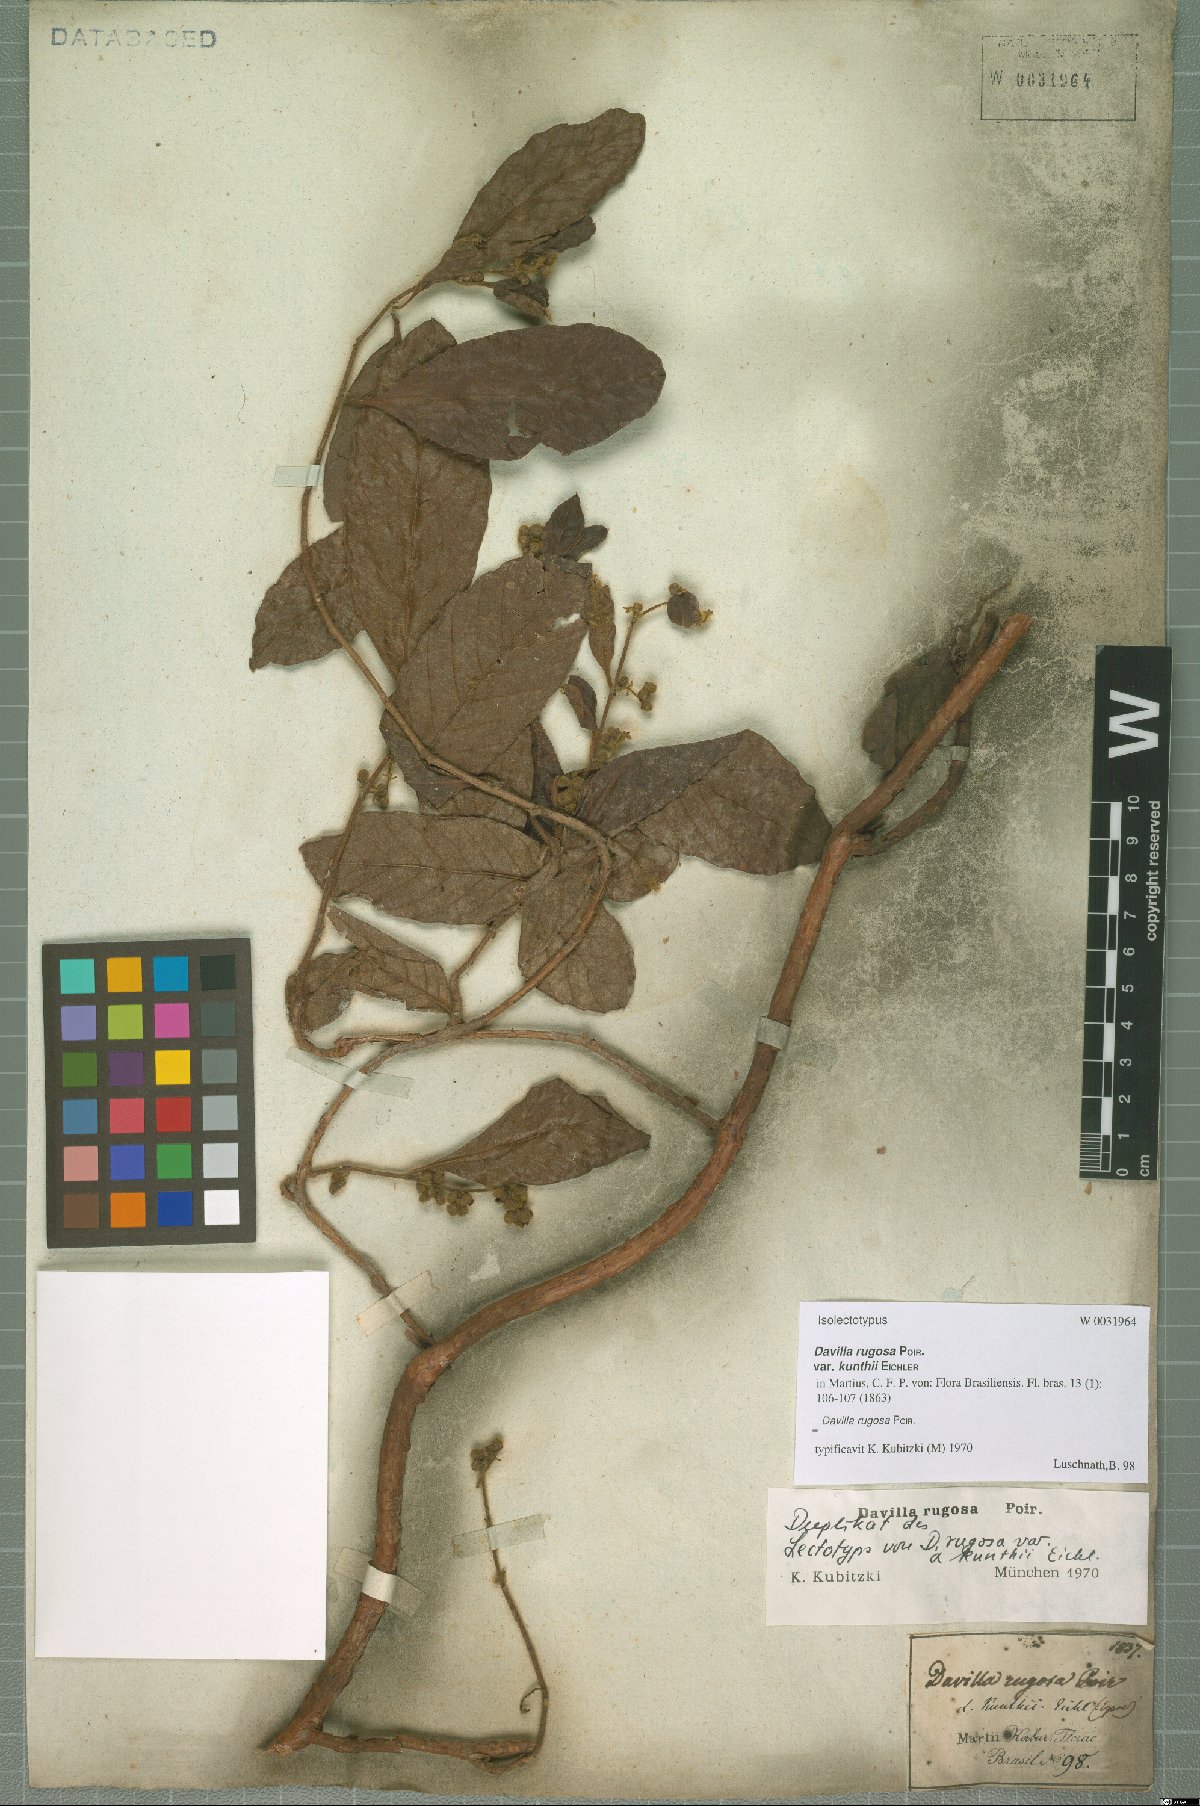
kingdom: Plantae
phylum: Tracheophyta
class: Magnoliopsida
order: Dilleniales
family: Dilleniaceae
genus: Davilla
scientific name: Davilla rugosa
